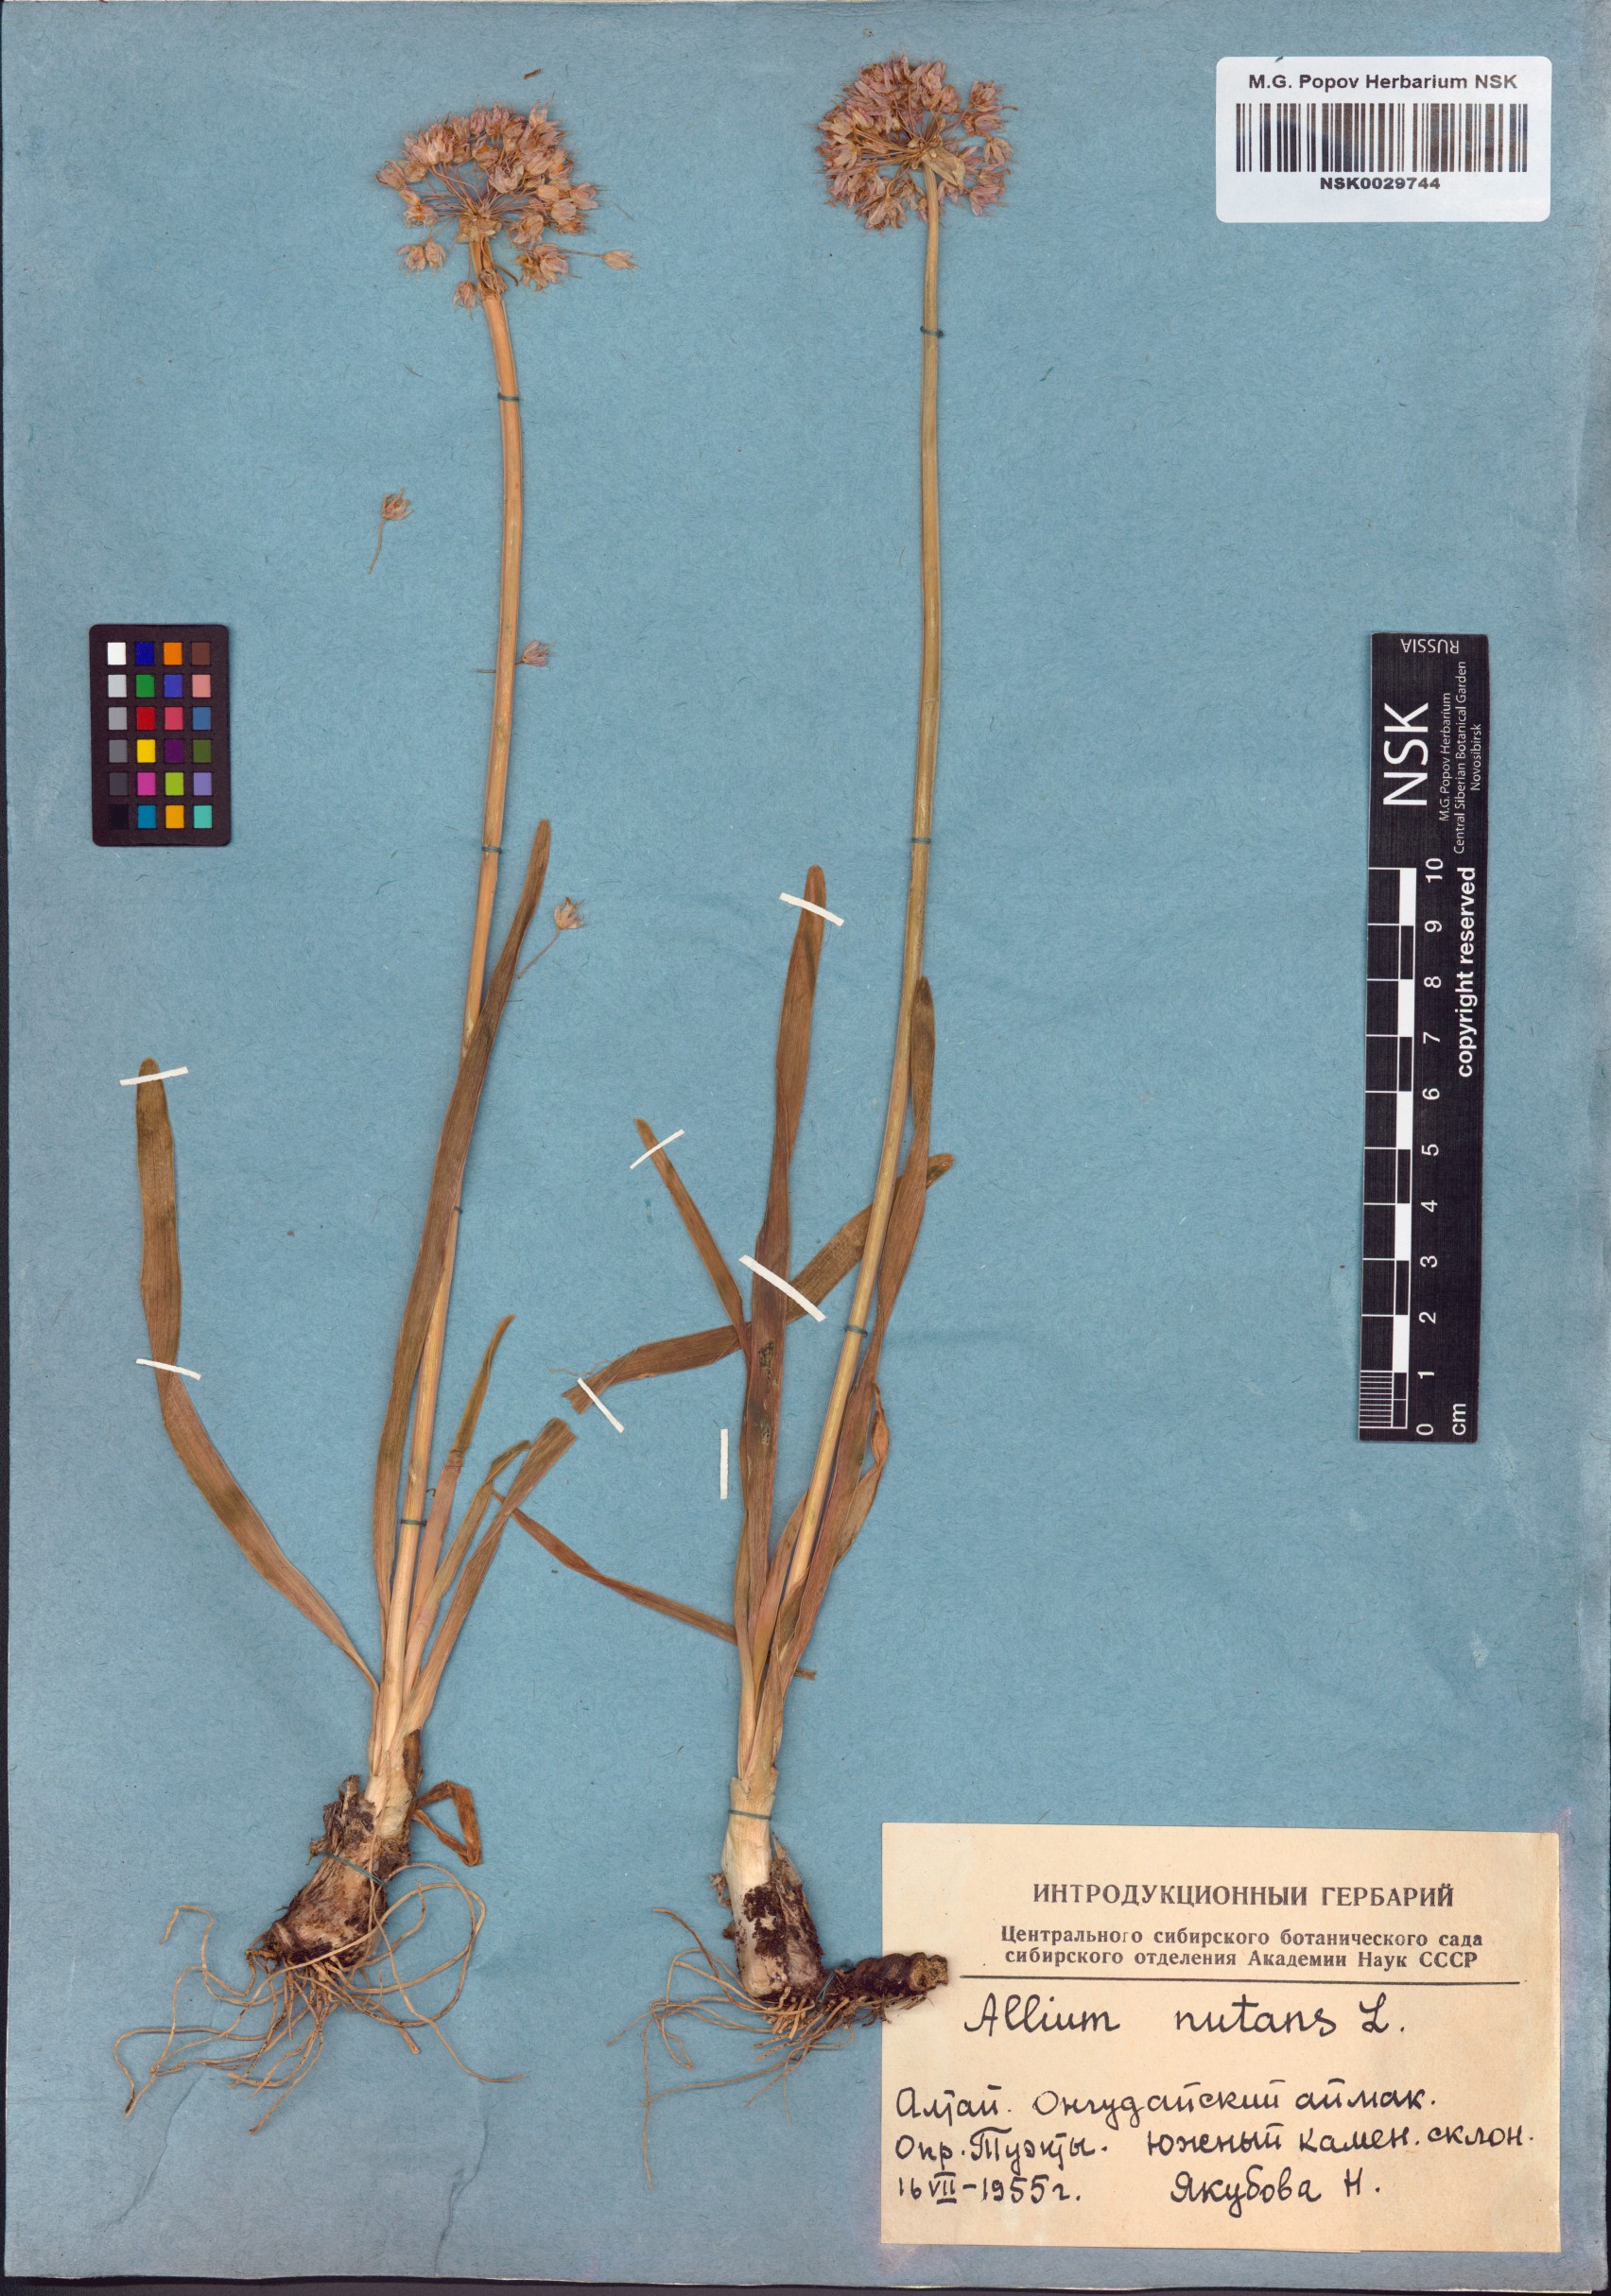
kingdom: Plantae
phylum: Tracheophyta
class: Liliopsida
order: Asparagales
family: Amaryllidaceae
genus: Allium
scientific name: Allium nutans
